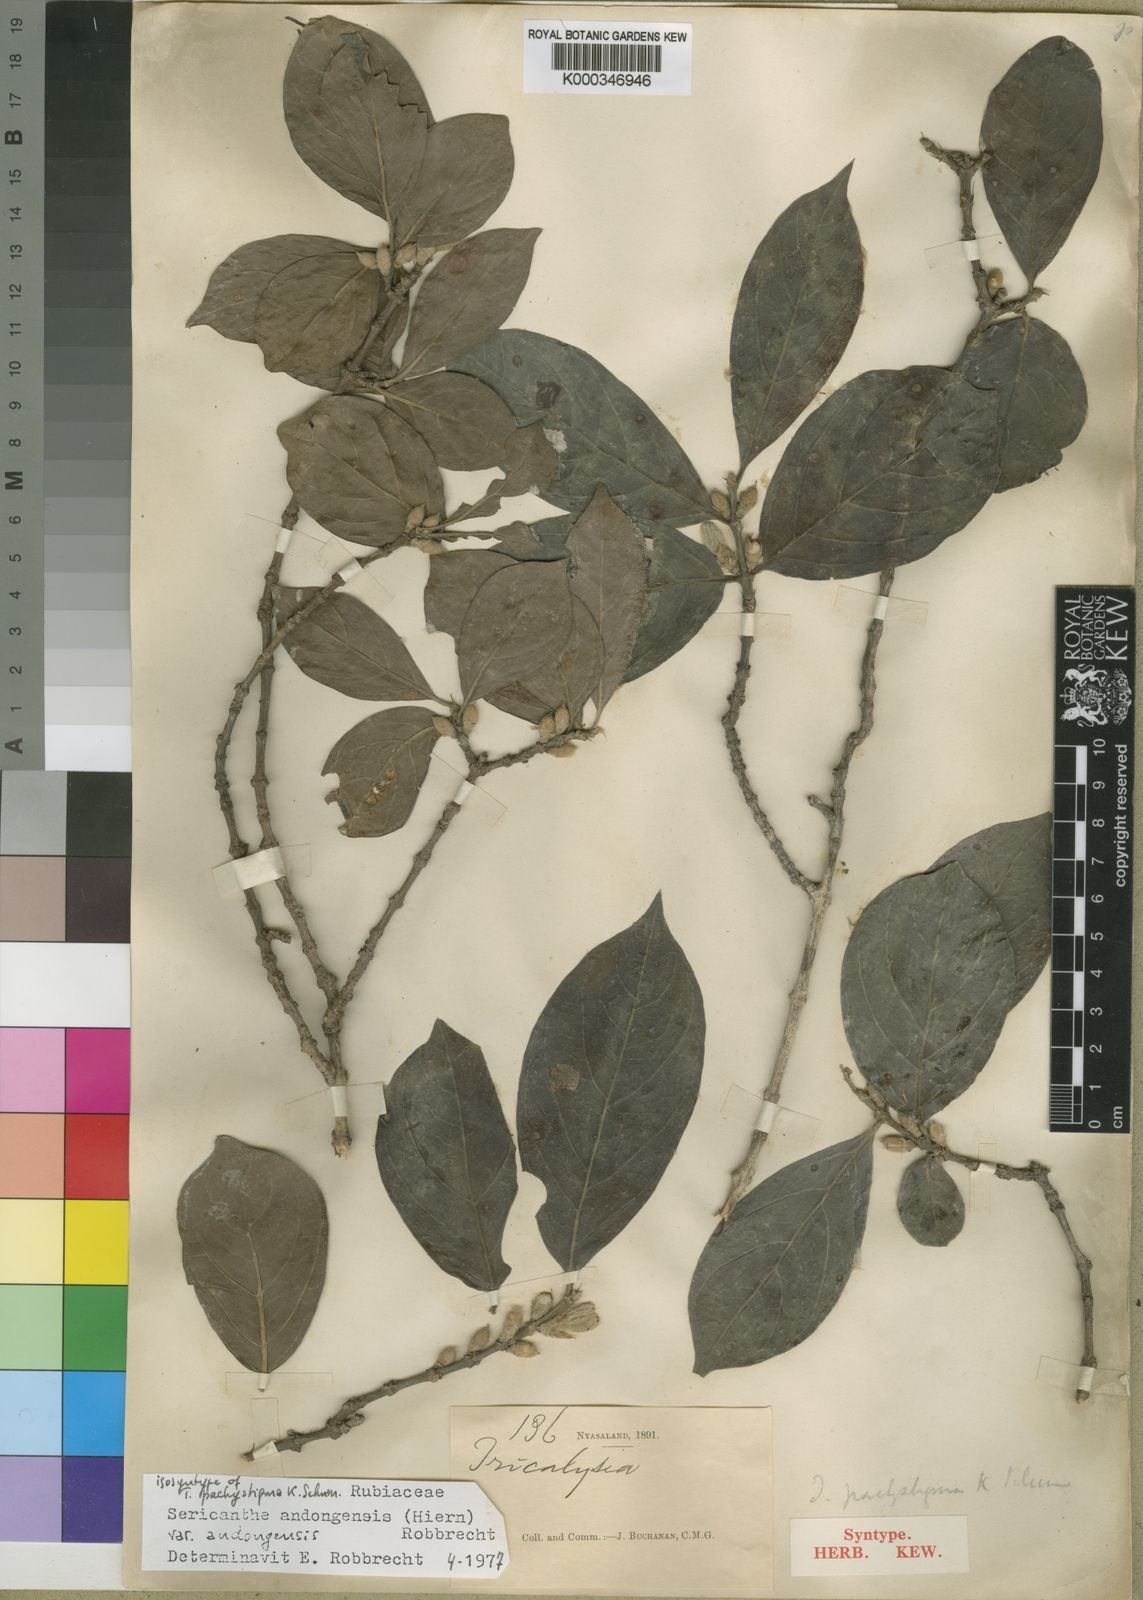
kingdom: Plantae
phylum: Tracheophyta
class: Magnoliopsida
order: Gentianales
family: Rubiaceae
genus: Sericanthe
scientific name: Sericanthe andongensis
